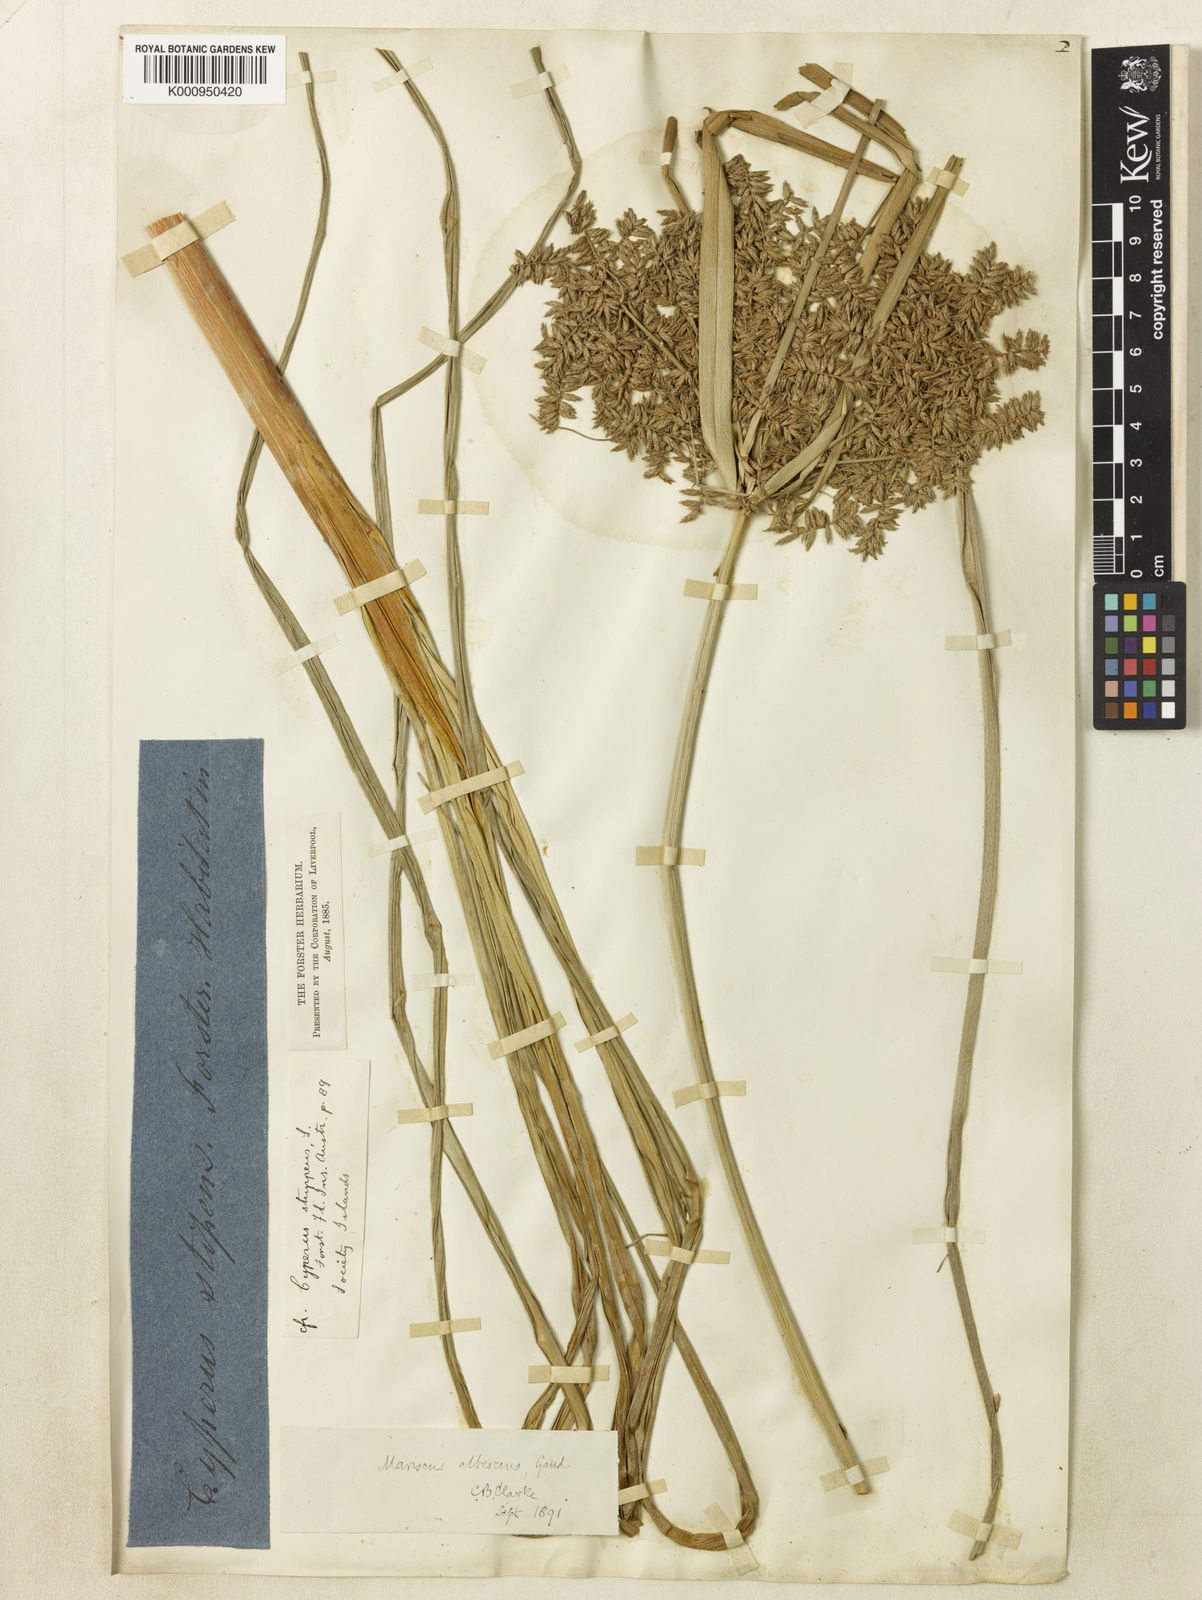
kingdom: Plantae
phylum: Tracheophyta
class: Liliopsida
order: Poales
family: Cyperaceae
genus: Cyperus
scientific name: Cyperus javanicus
